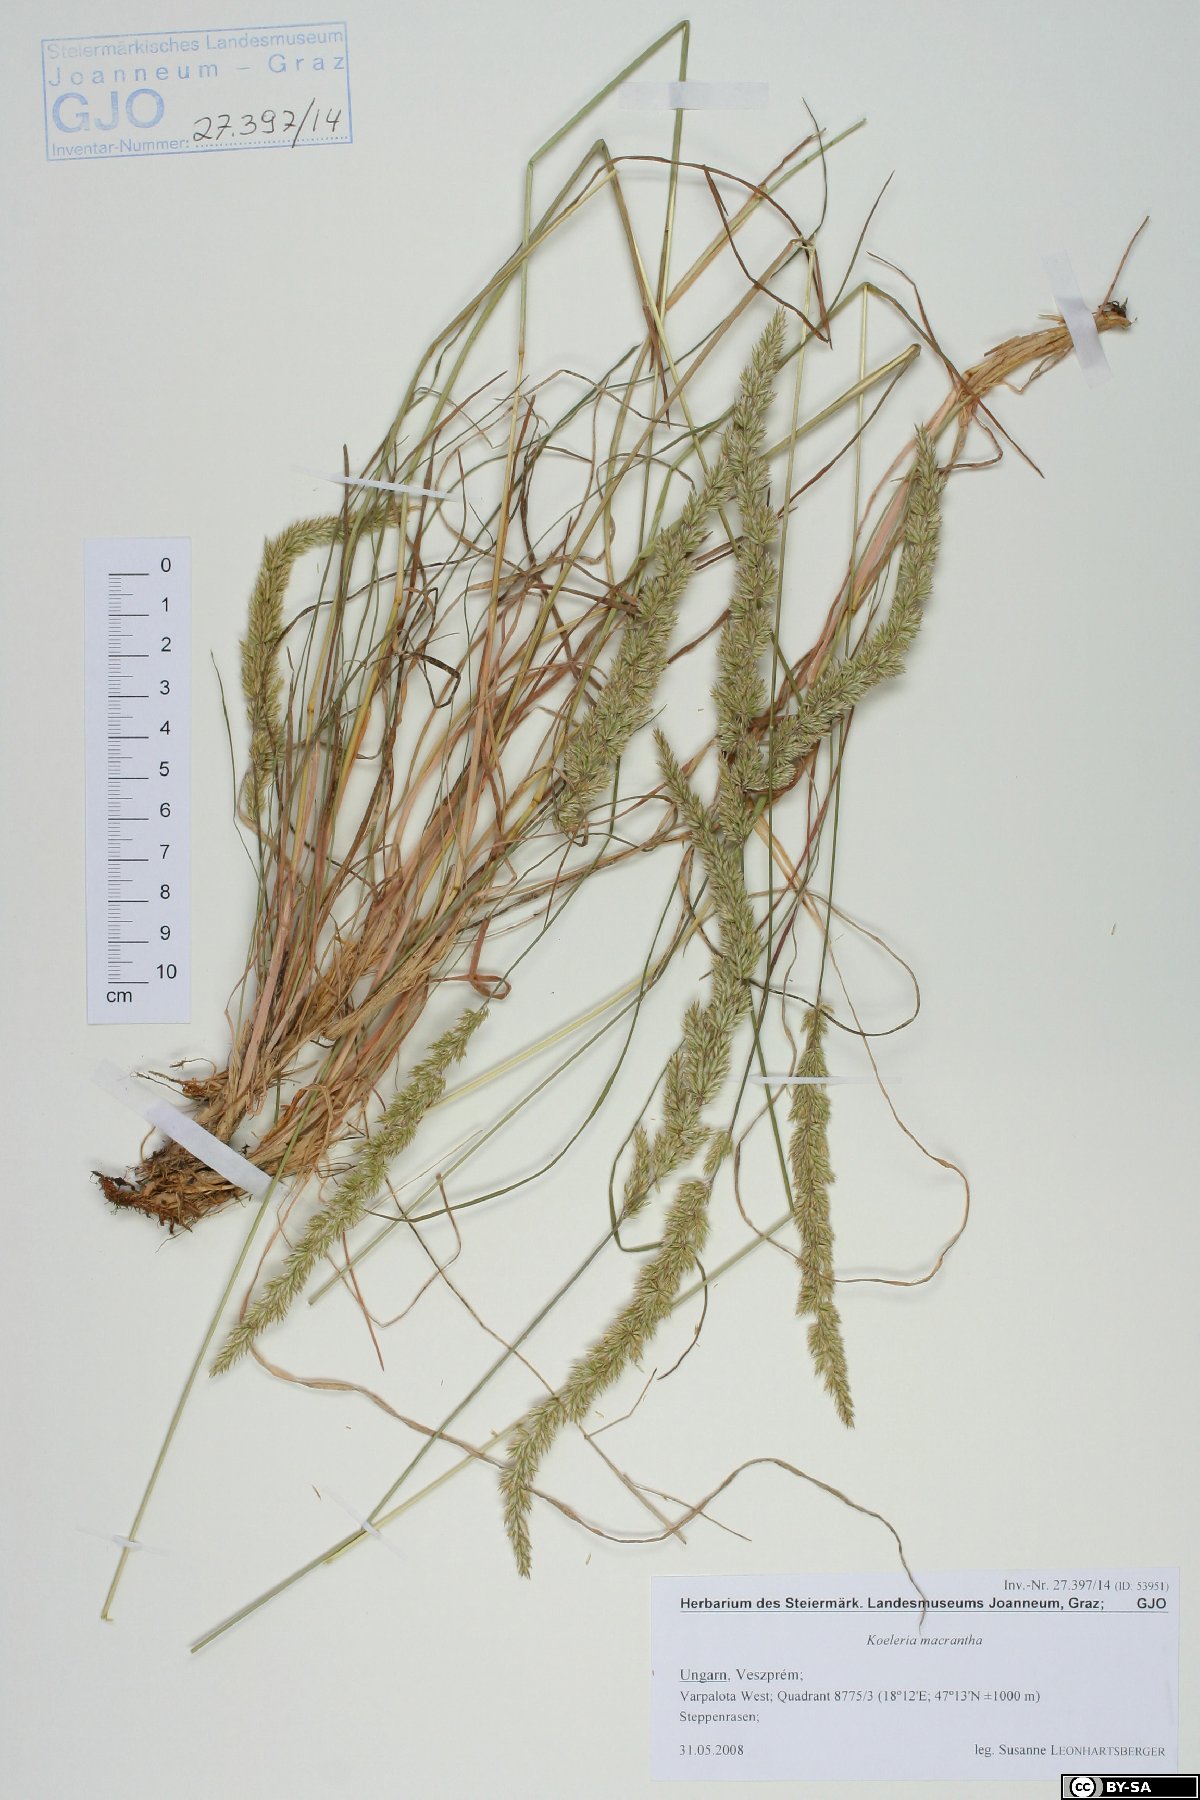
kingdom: Plantae
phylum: Tracheophyta
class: Liliopsida
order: Poales
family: Poaceae
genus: Koeleria
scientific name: Koeleria macrantha
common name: Crested hair-grass
